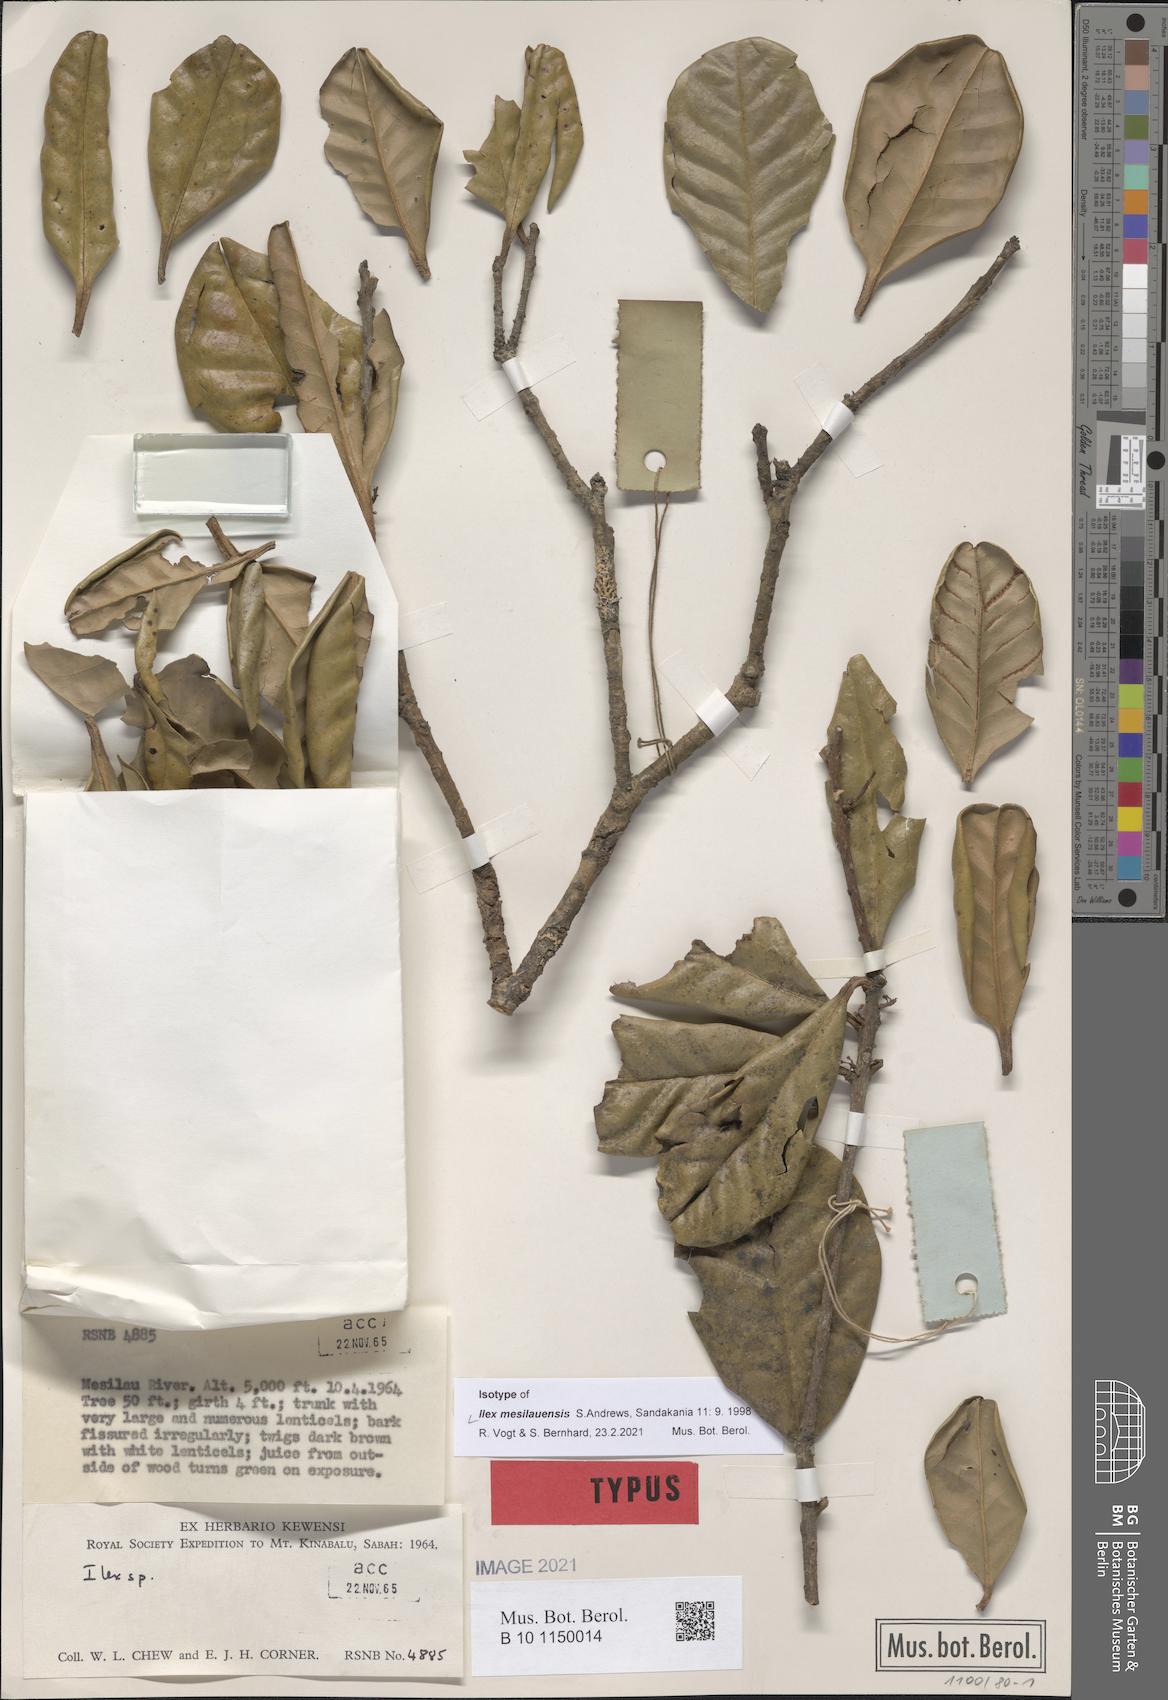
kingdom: Plantae
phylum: Tracheophyta
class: Magnoliopsida
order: Aquifoliales
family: Aquifoliaceae
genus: Ilex
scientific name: Ilex mesilauensis
